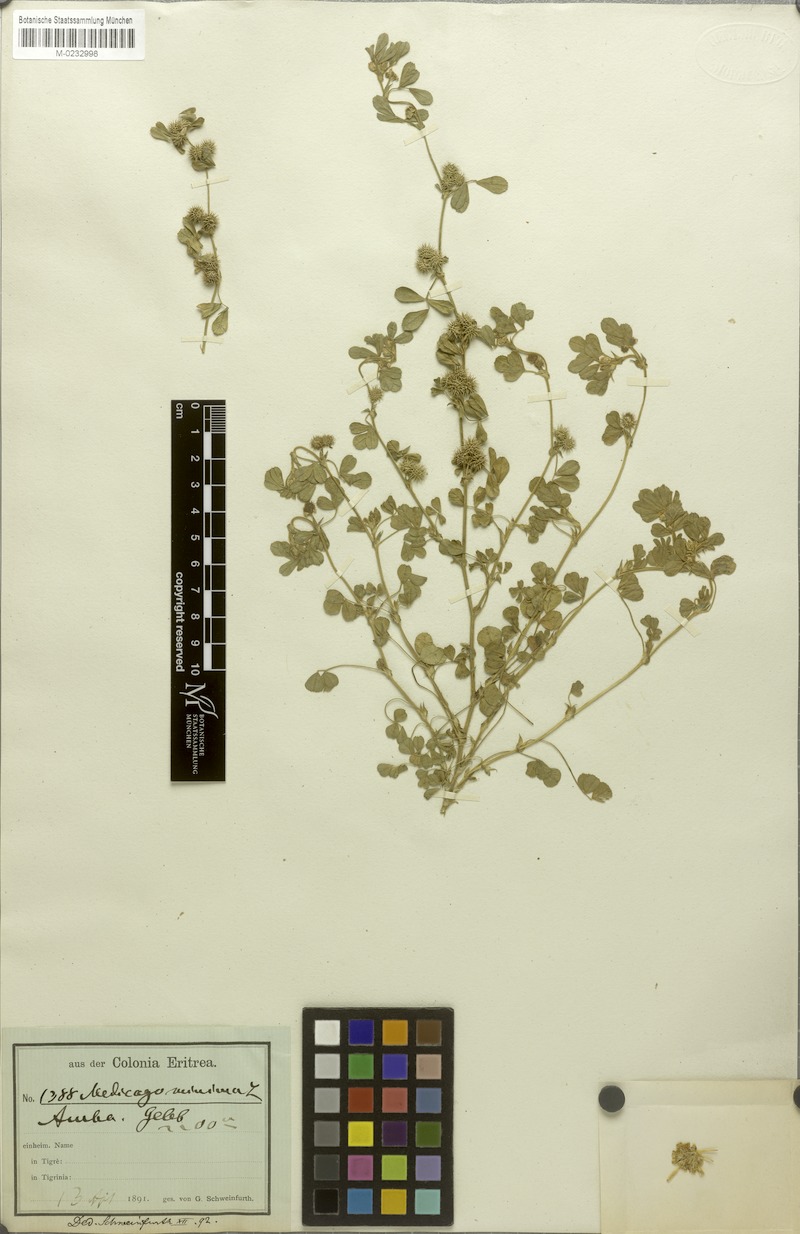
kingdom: Plantae
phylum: Tracheophyta
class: Magnoliopsida
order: Fabales
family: Fabaceae
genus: Medicago
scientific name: Medicago minima
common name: Little bur-clover
